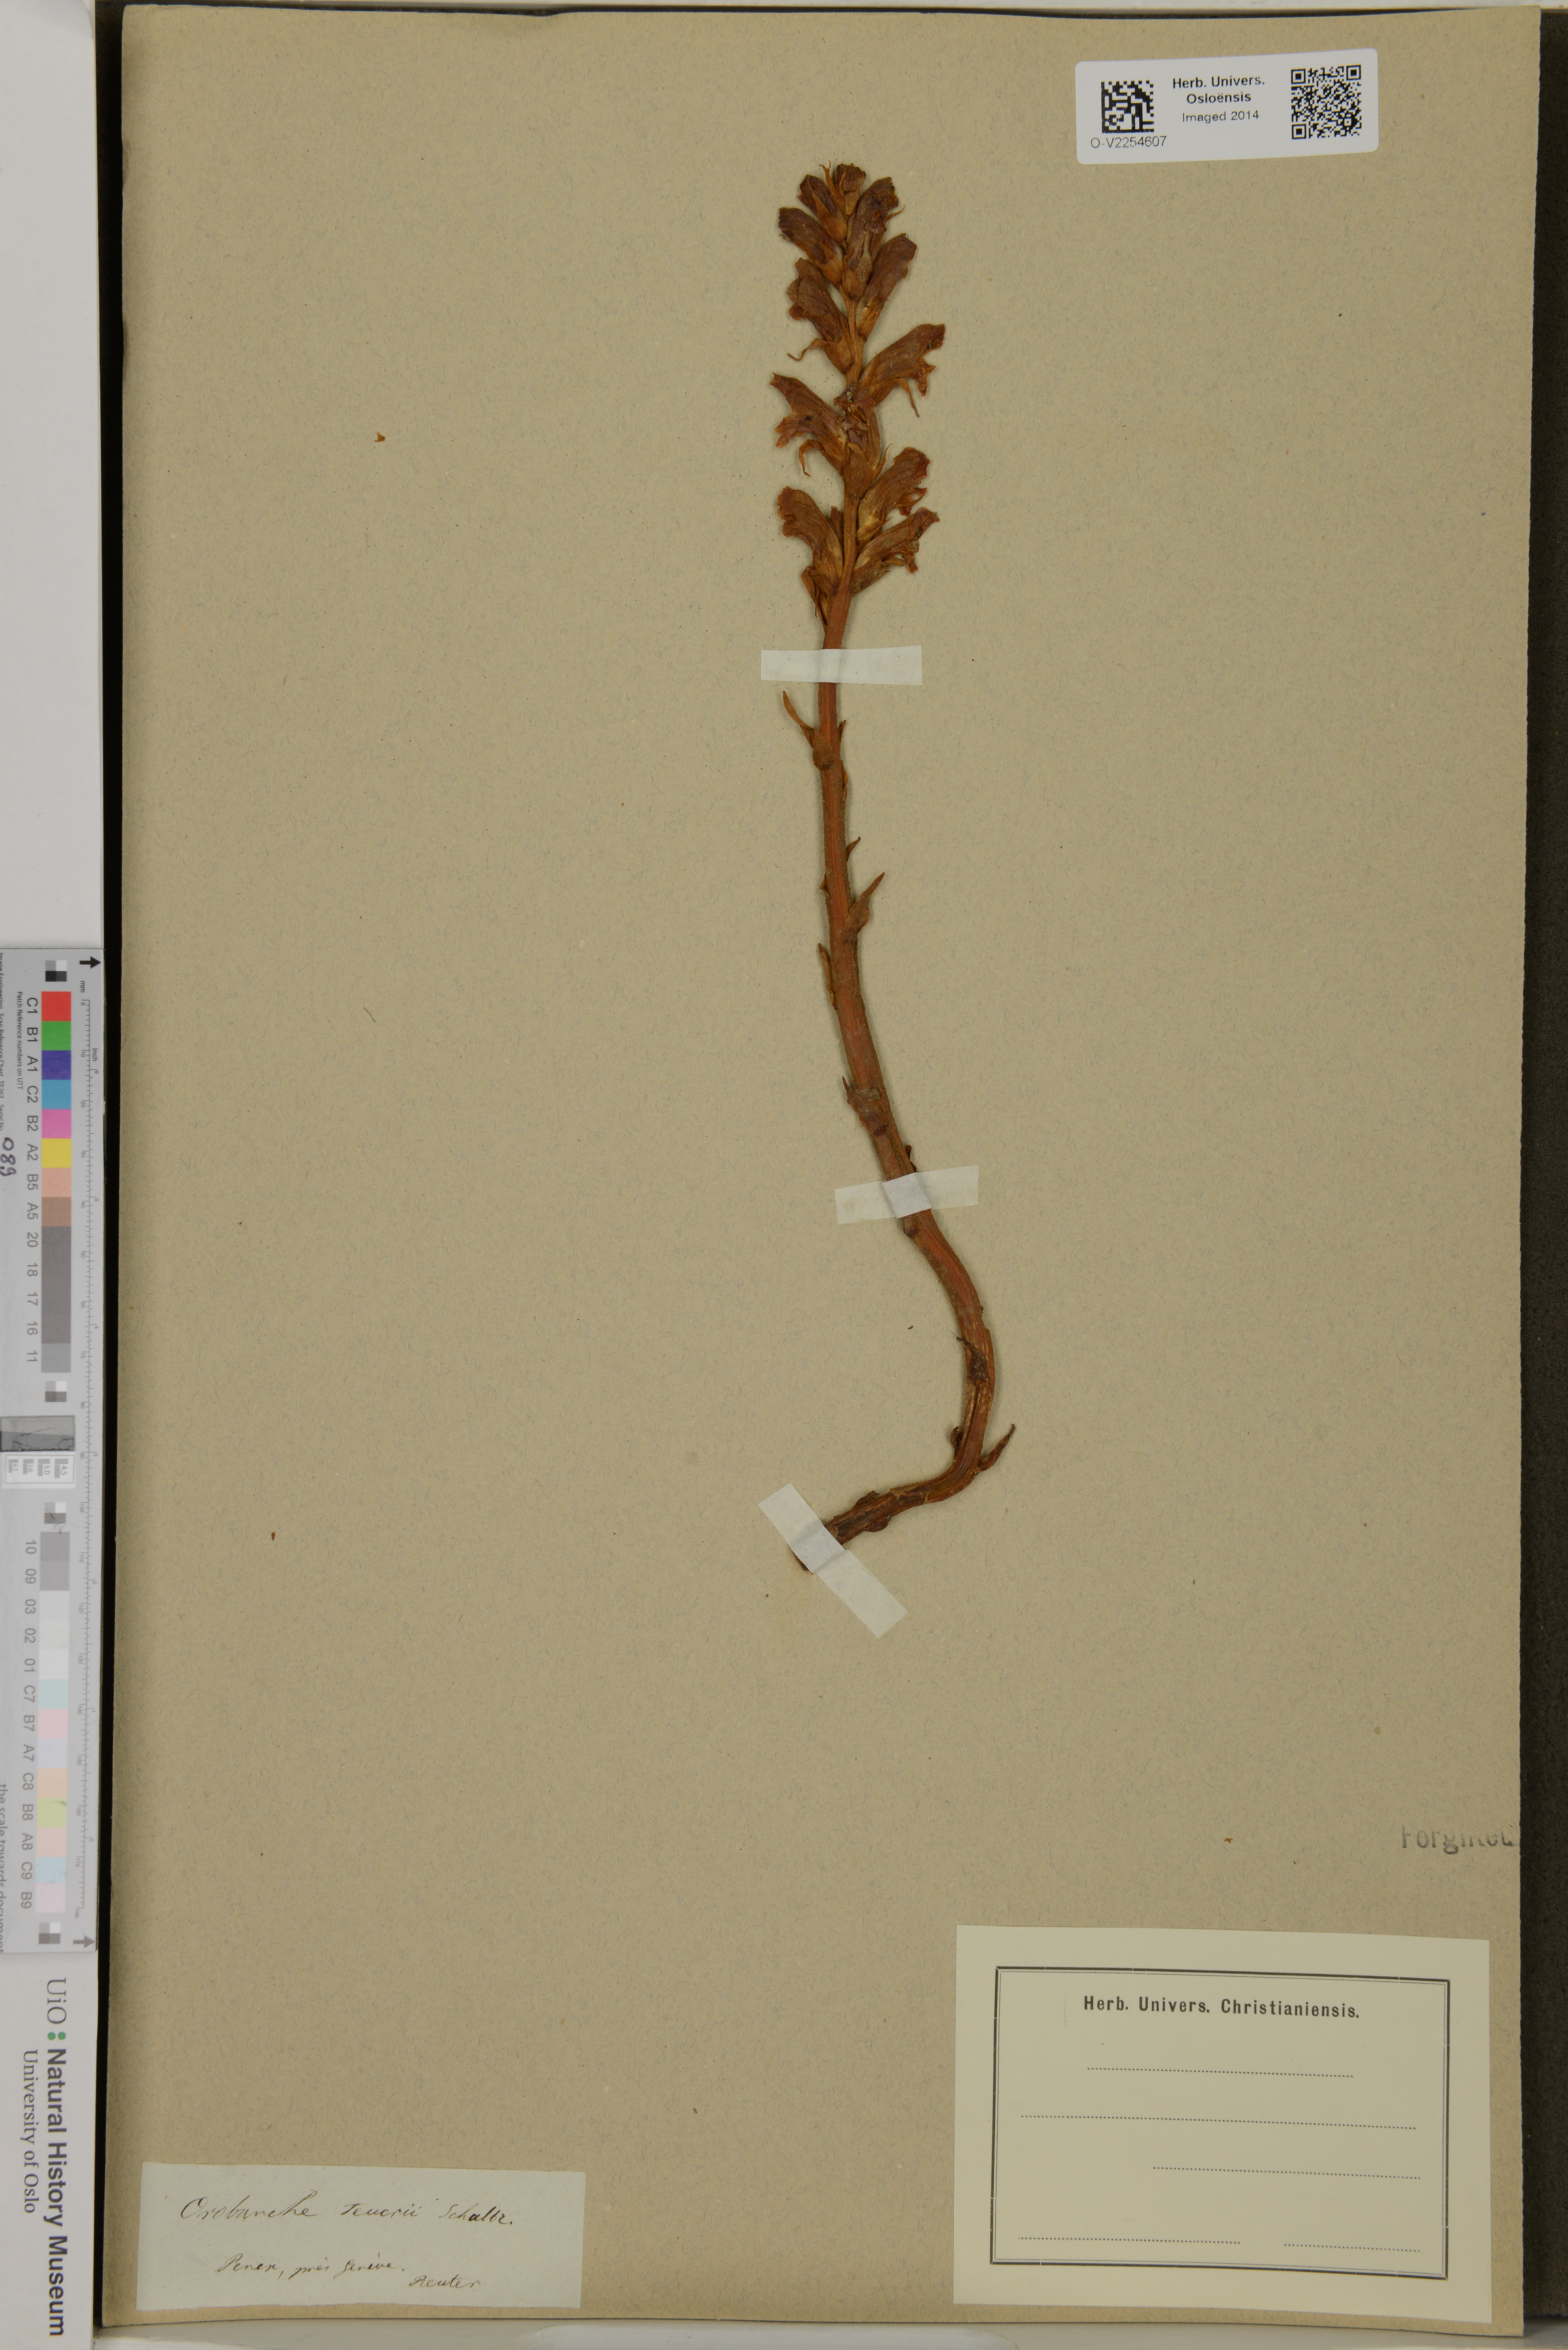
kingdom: Plantae
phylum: Tracheophyta
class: Magnoliopsida
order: Lamiales
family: Orobanchaceae
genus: Orobanche
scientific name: Orobanche teucrii
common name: Germander broomrape
